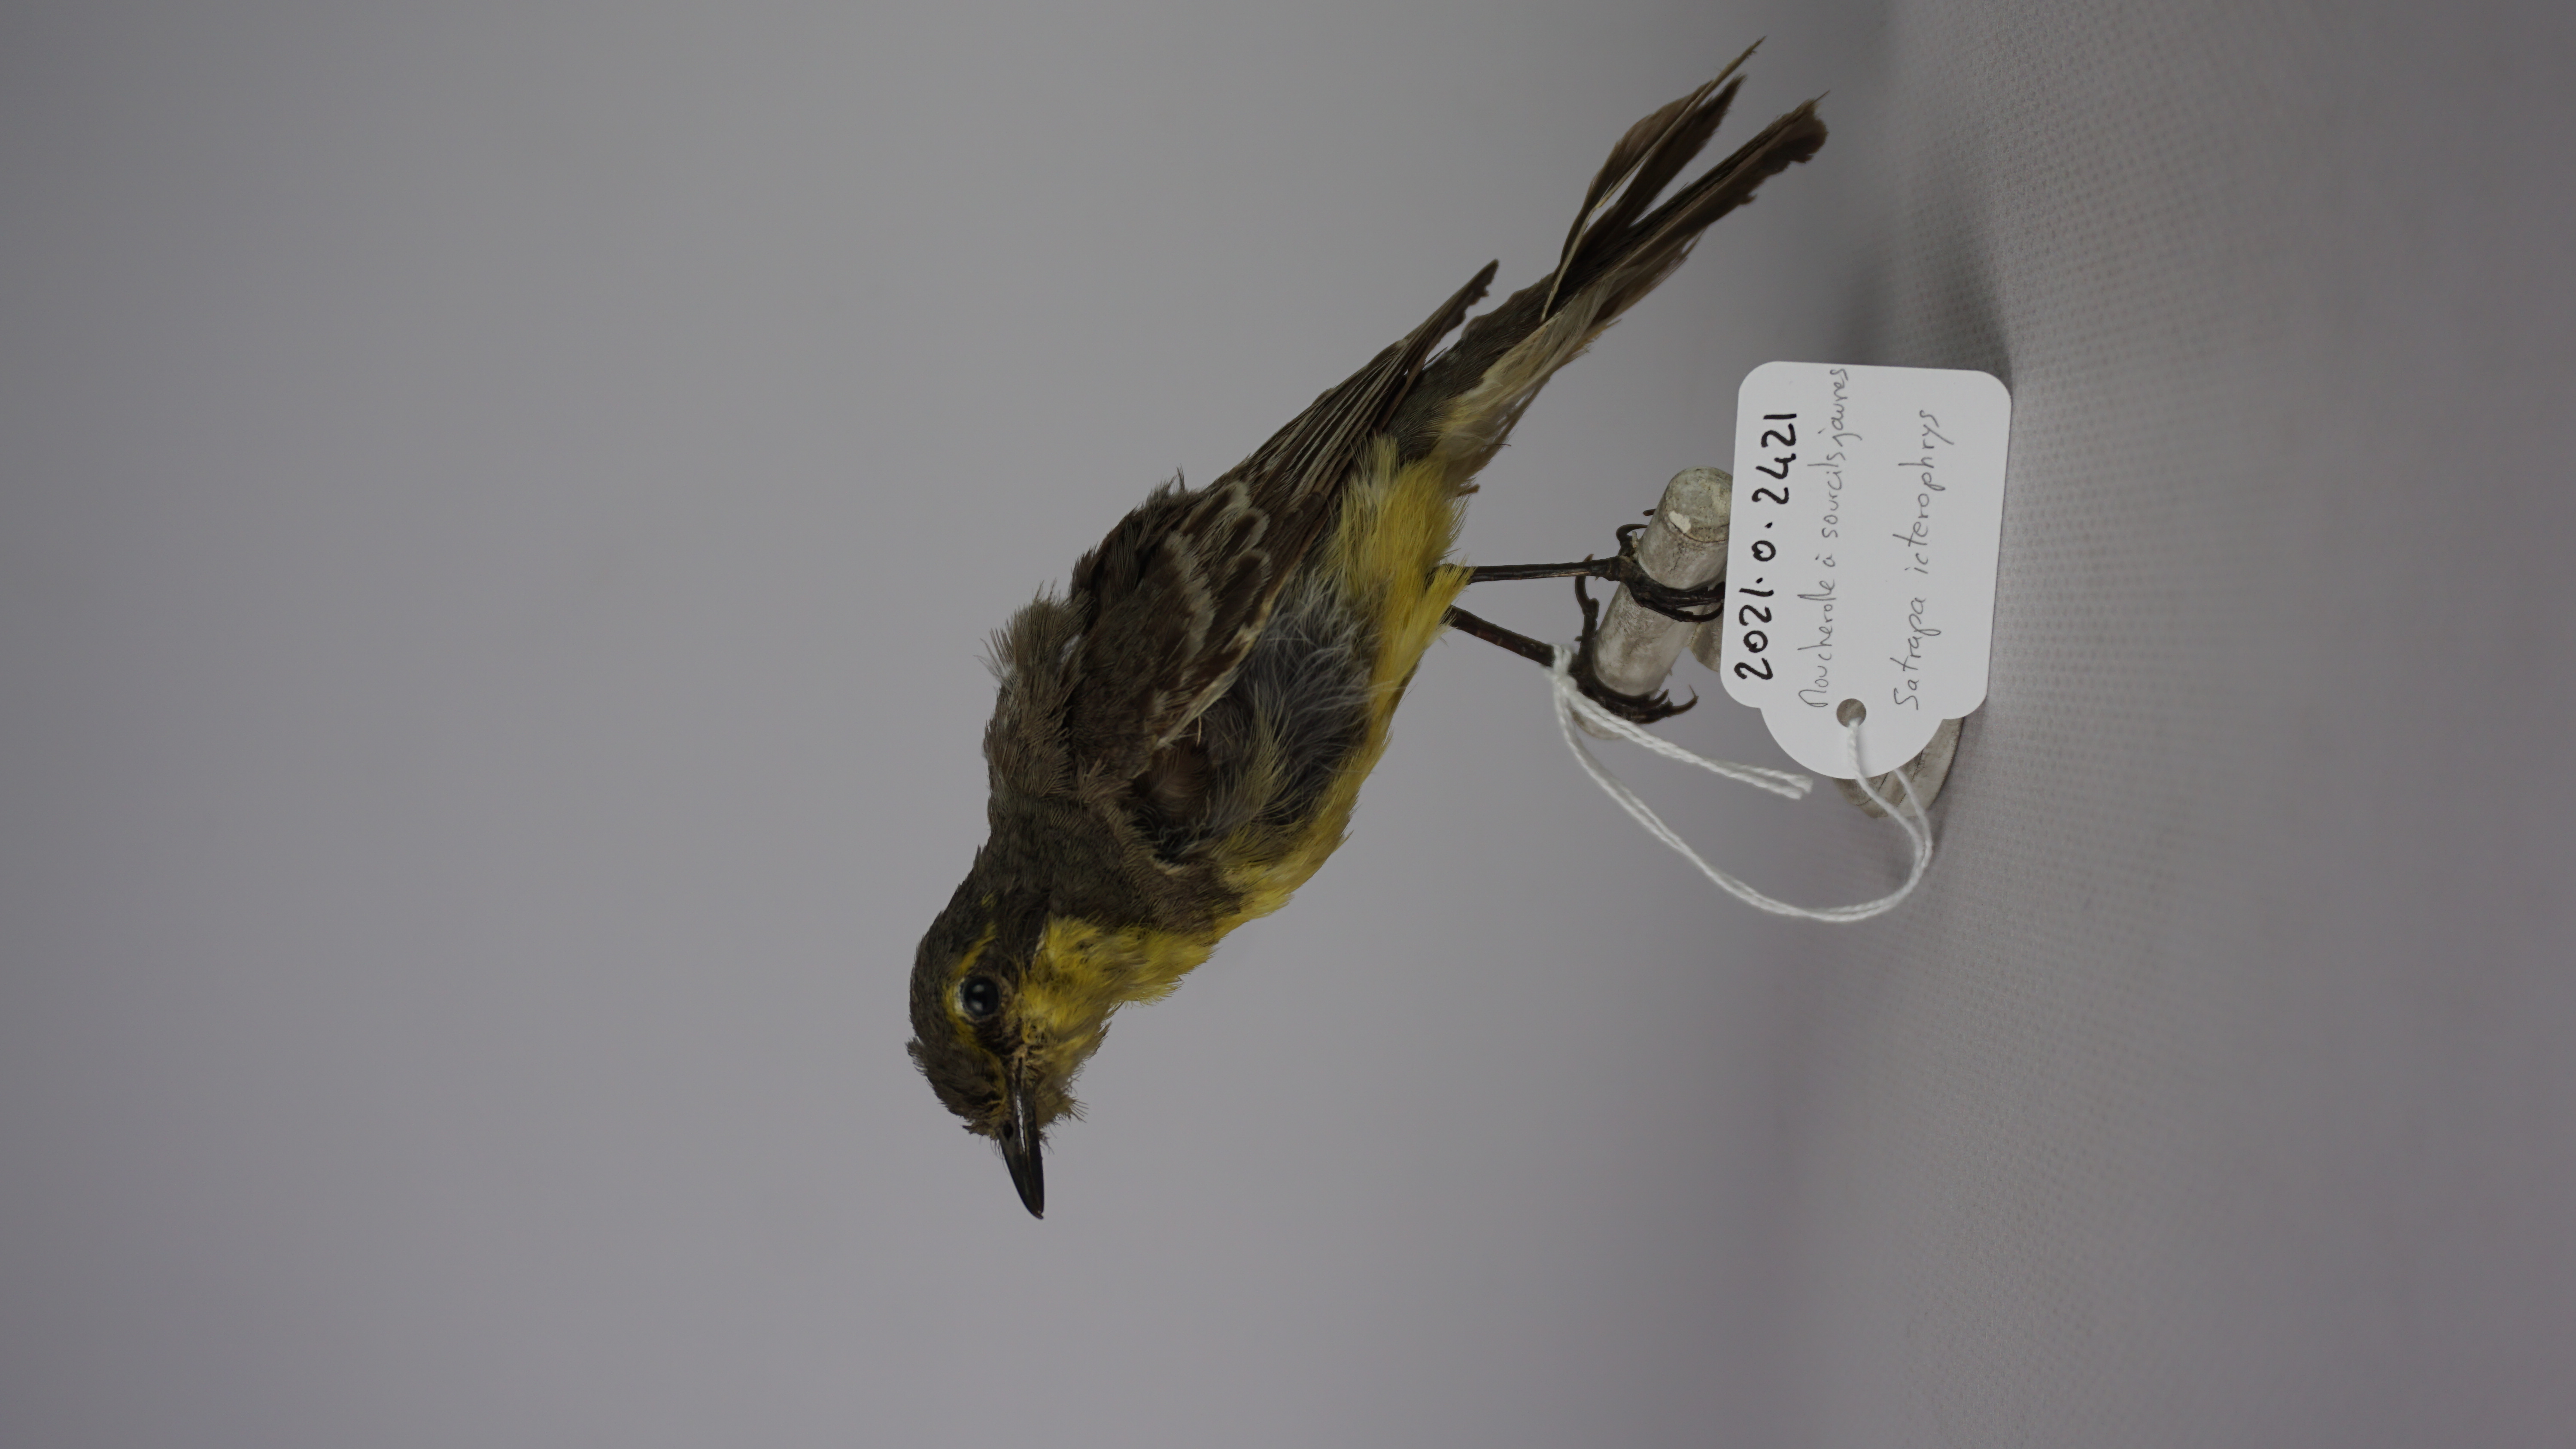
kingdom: Animalia
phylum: Chordata
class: Aves
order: Passeriformes
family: Tyrannidae
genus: Satrapa
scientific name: Satrapa icterophrys
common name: Yellow-browed tyrant
